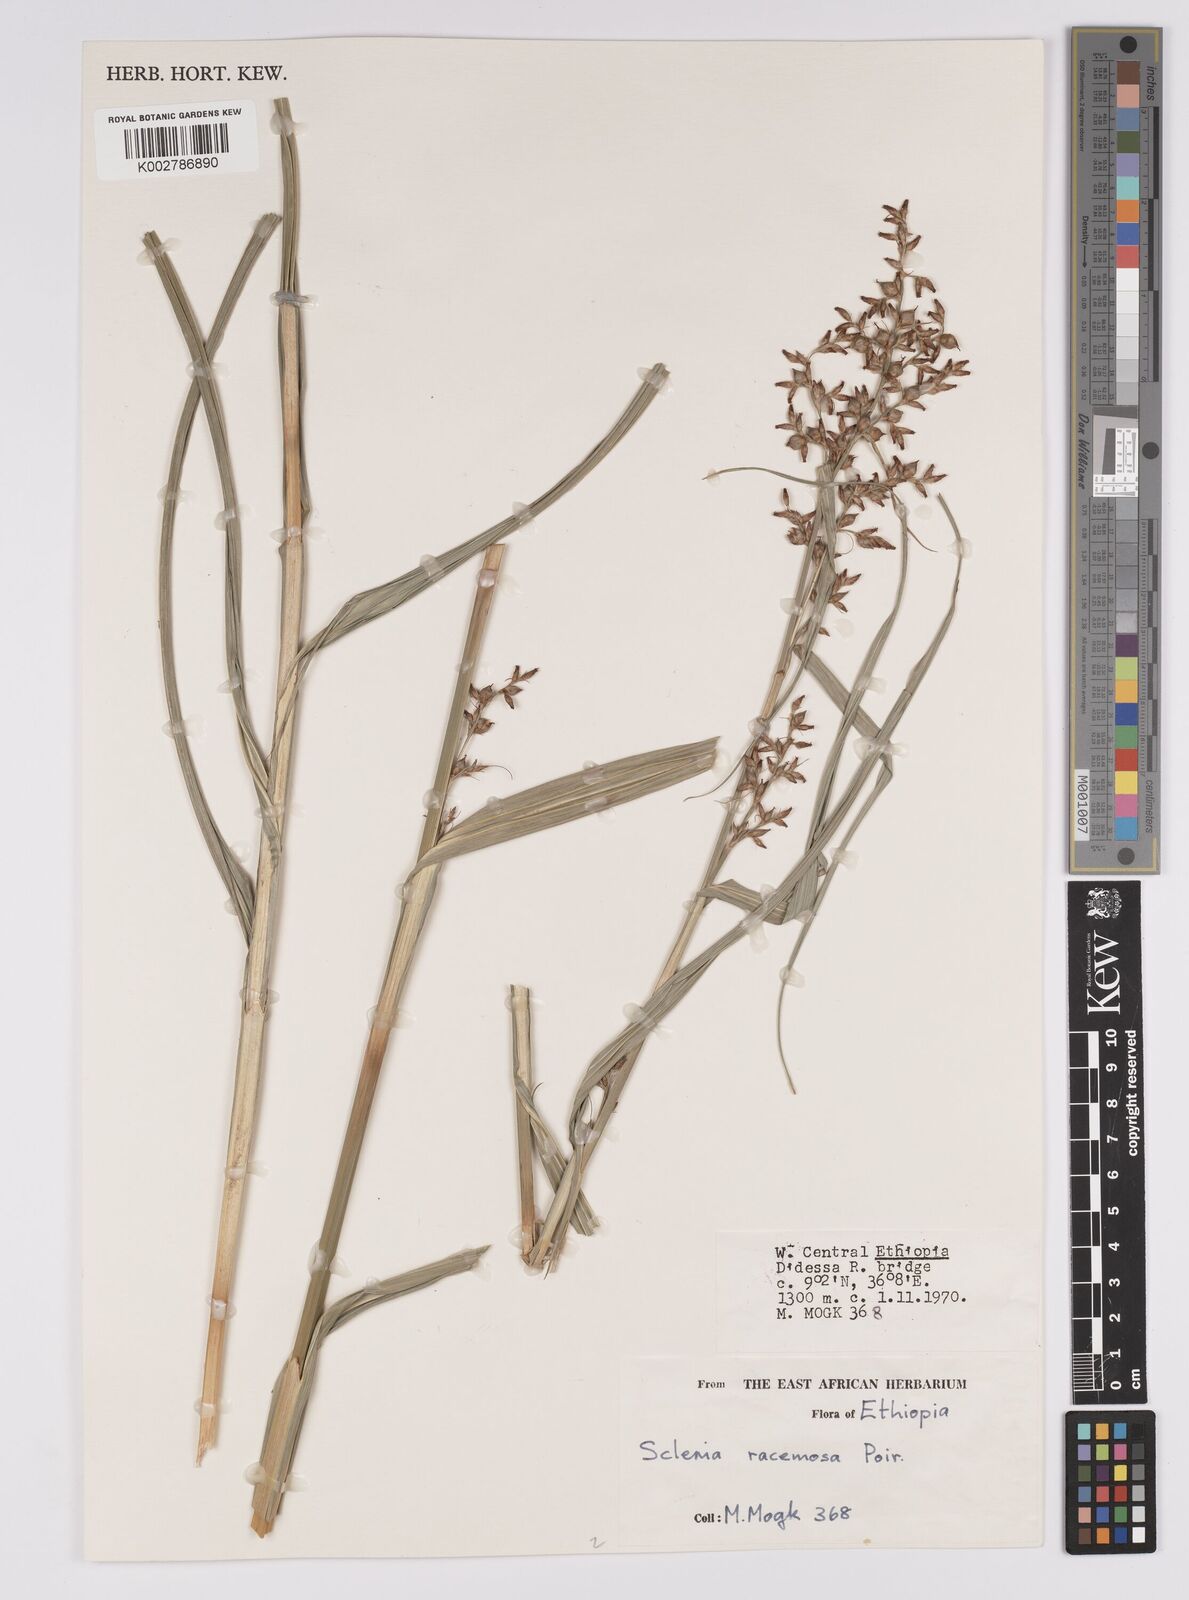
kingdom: Plantae
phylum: Tracheophyta
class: Liliopsida
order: Poales
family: Cyperaceae
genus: Scleria
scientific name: Scleria racemosa
